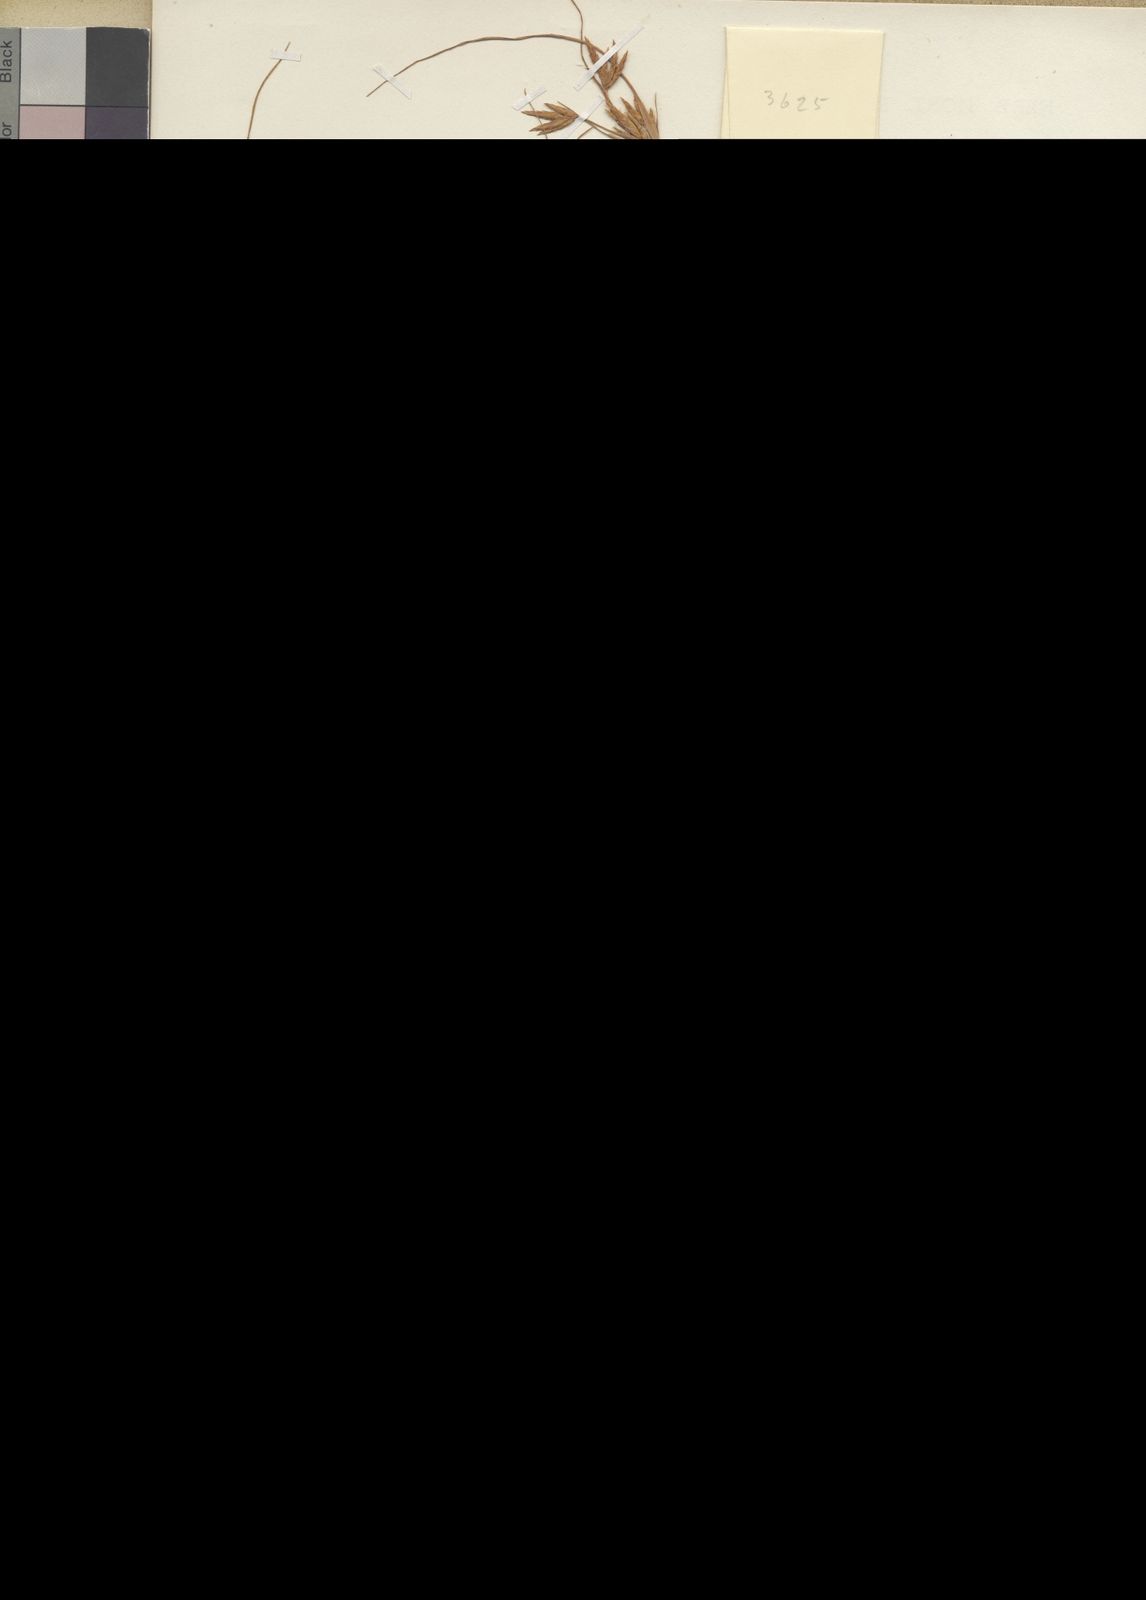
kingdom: Plantae
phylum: Tracheophyta
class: Liliopsida
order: Poales
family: Cyperaceae
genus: Cyperus
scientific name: Cyperus palmatus
